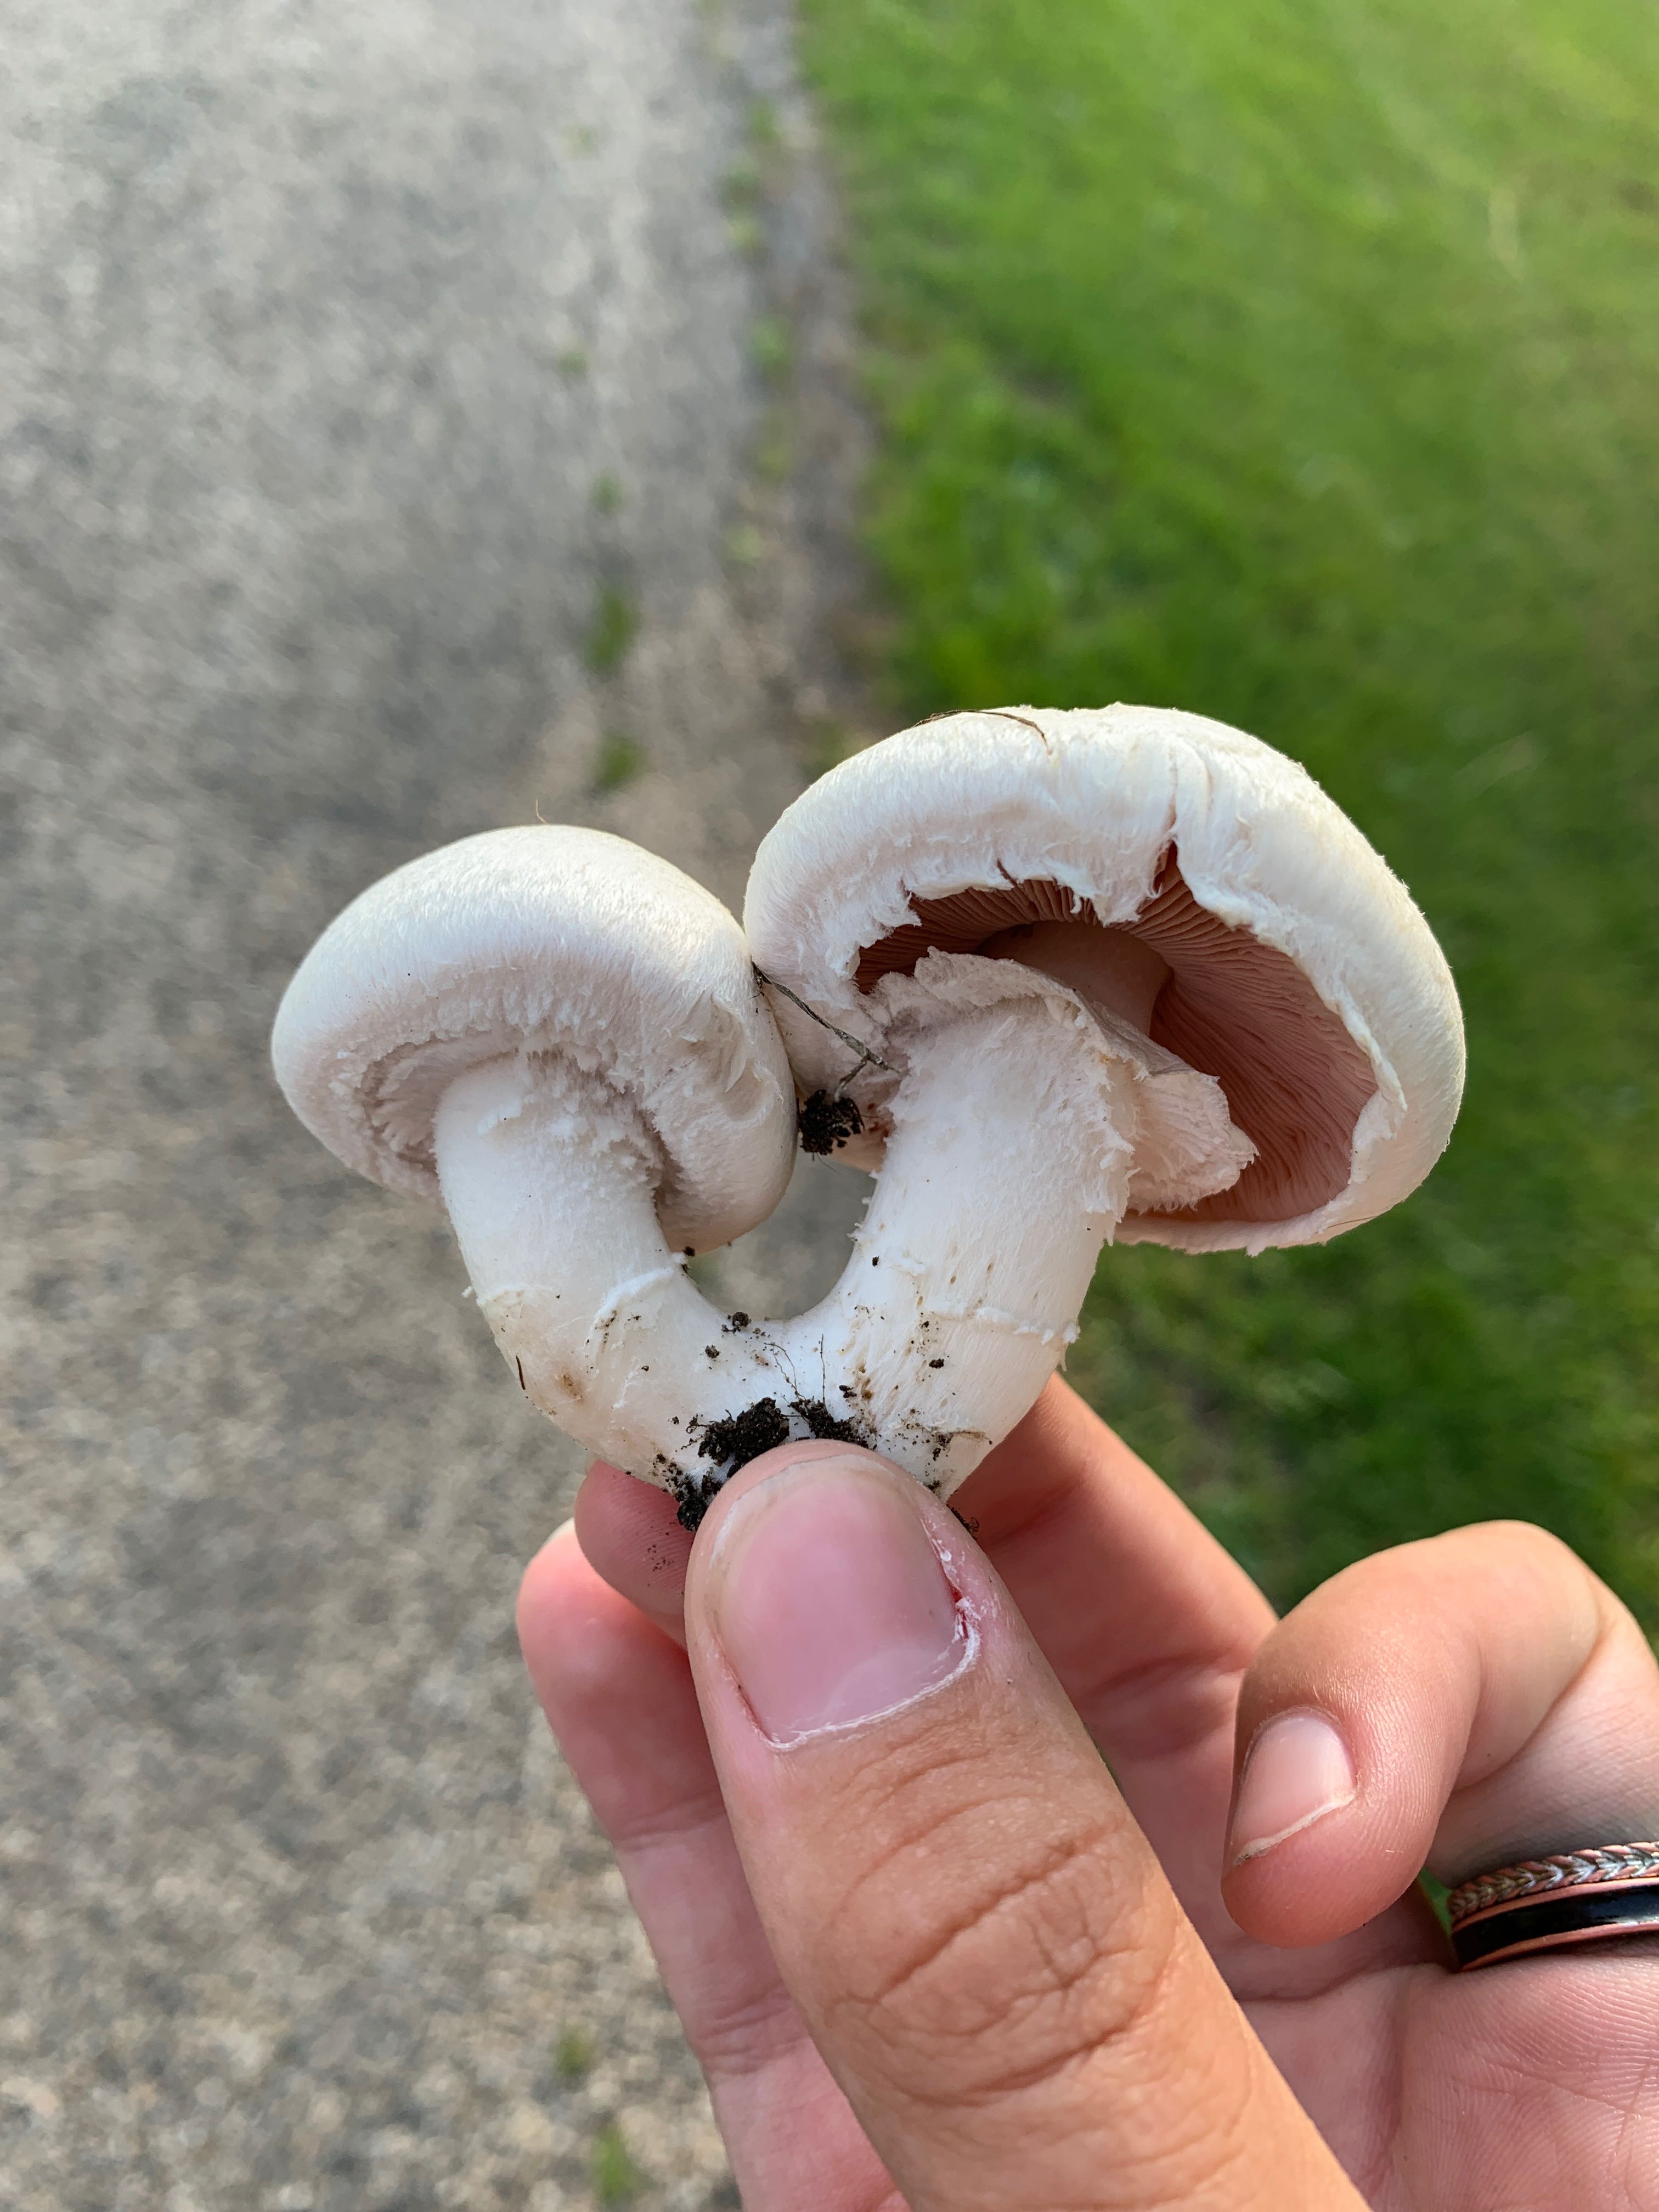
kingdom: Fungi
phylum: Basidiomycota
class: Agaricomycetes
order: Agaricales
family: Agaricaceae
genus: Agaricus
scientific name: Agaricus campestris
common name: mark-champignon
